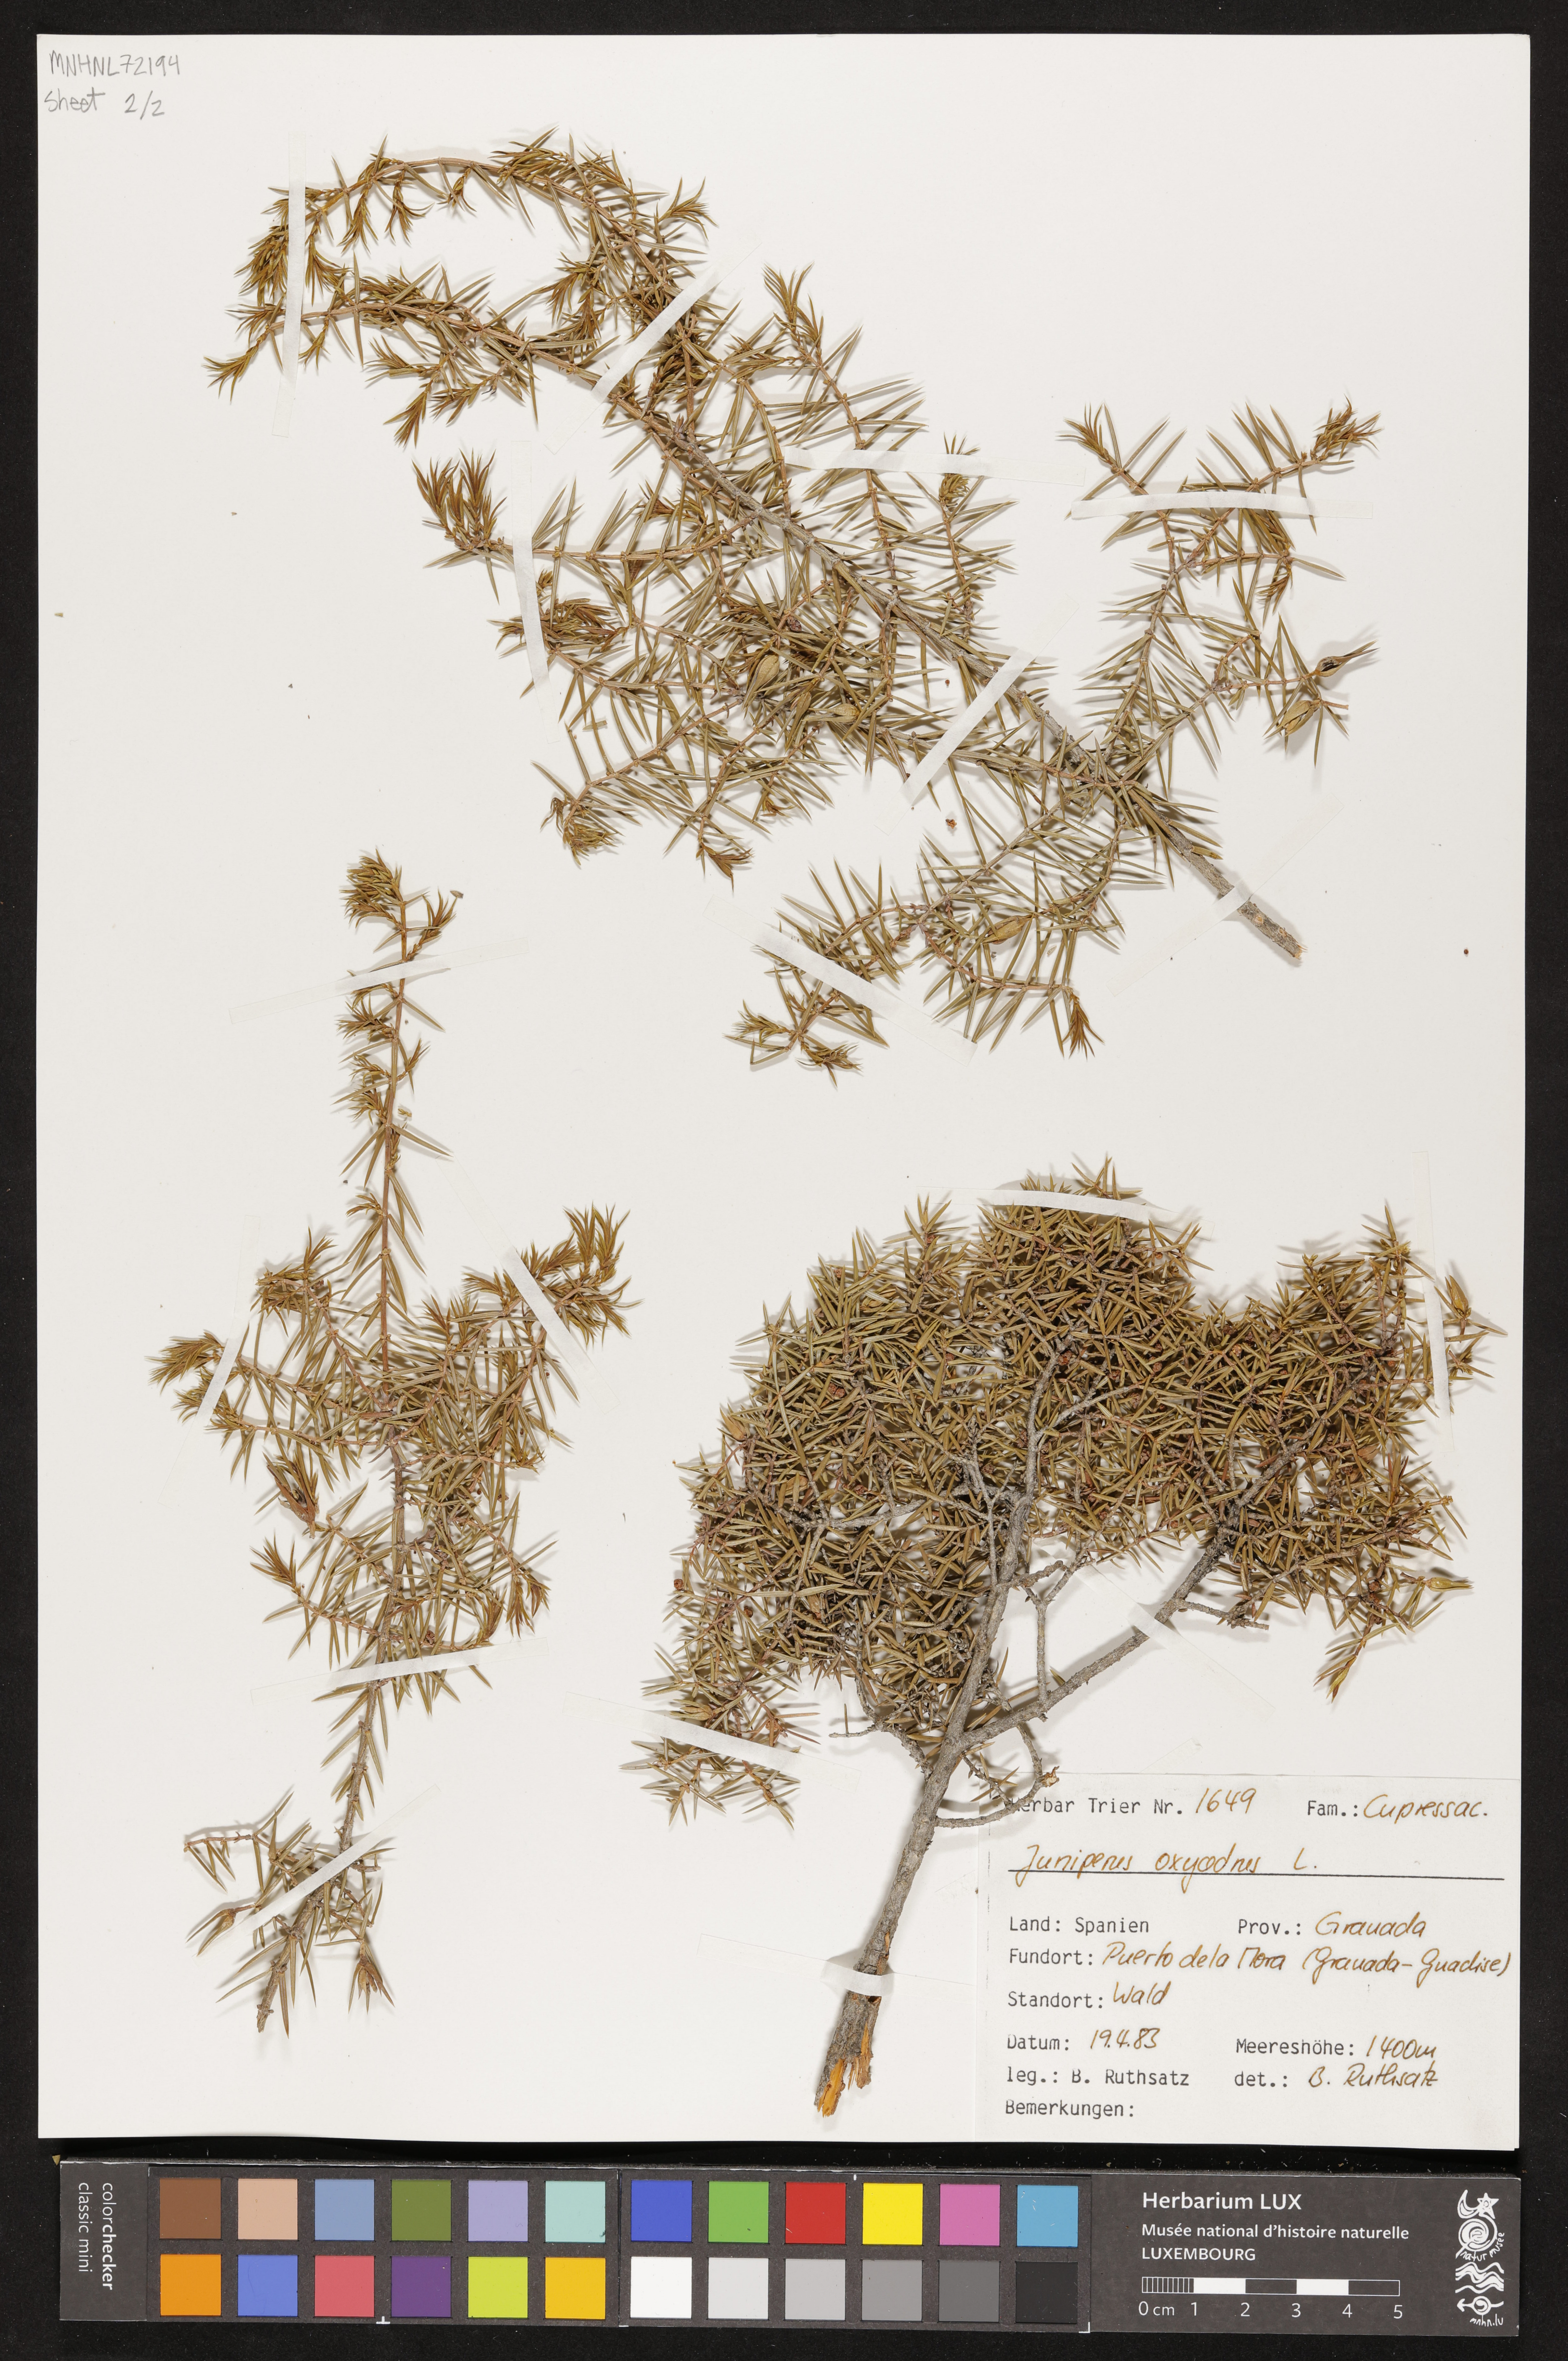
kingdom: Plantae
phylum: Tracheophyta
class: Pinopsida
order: Pinales
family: Cupressaceae
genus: Juniperus
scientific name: Juniperus oxycedrus
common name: Prickly juniper
